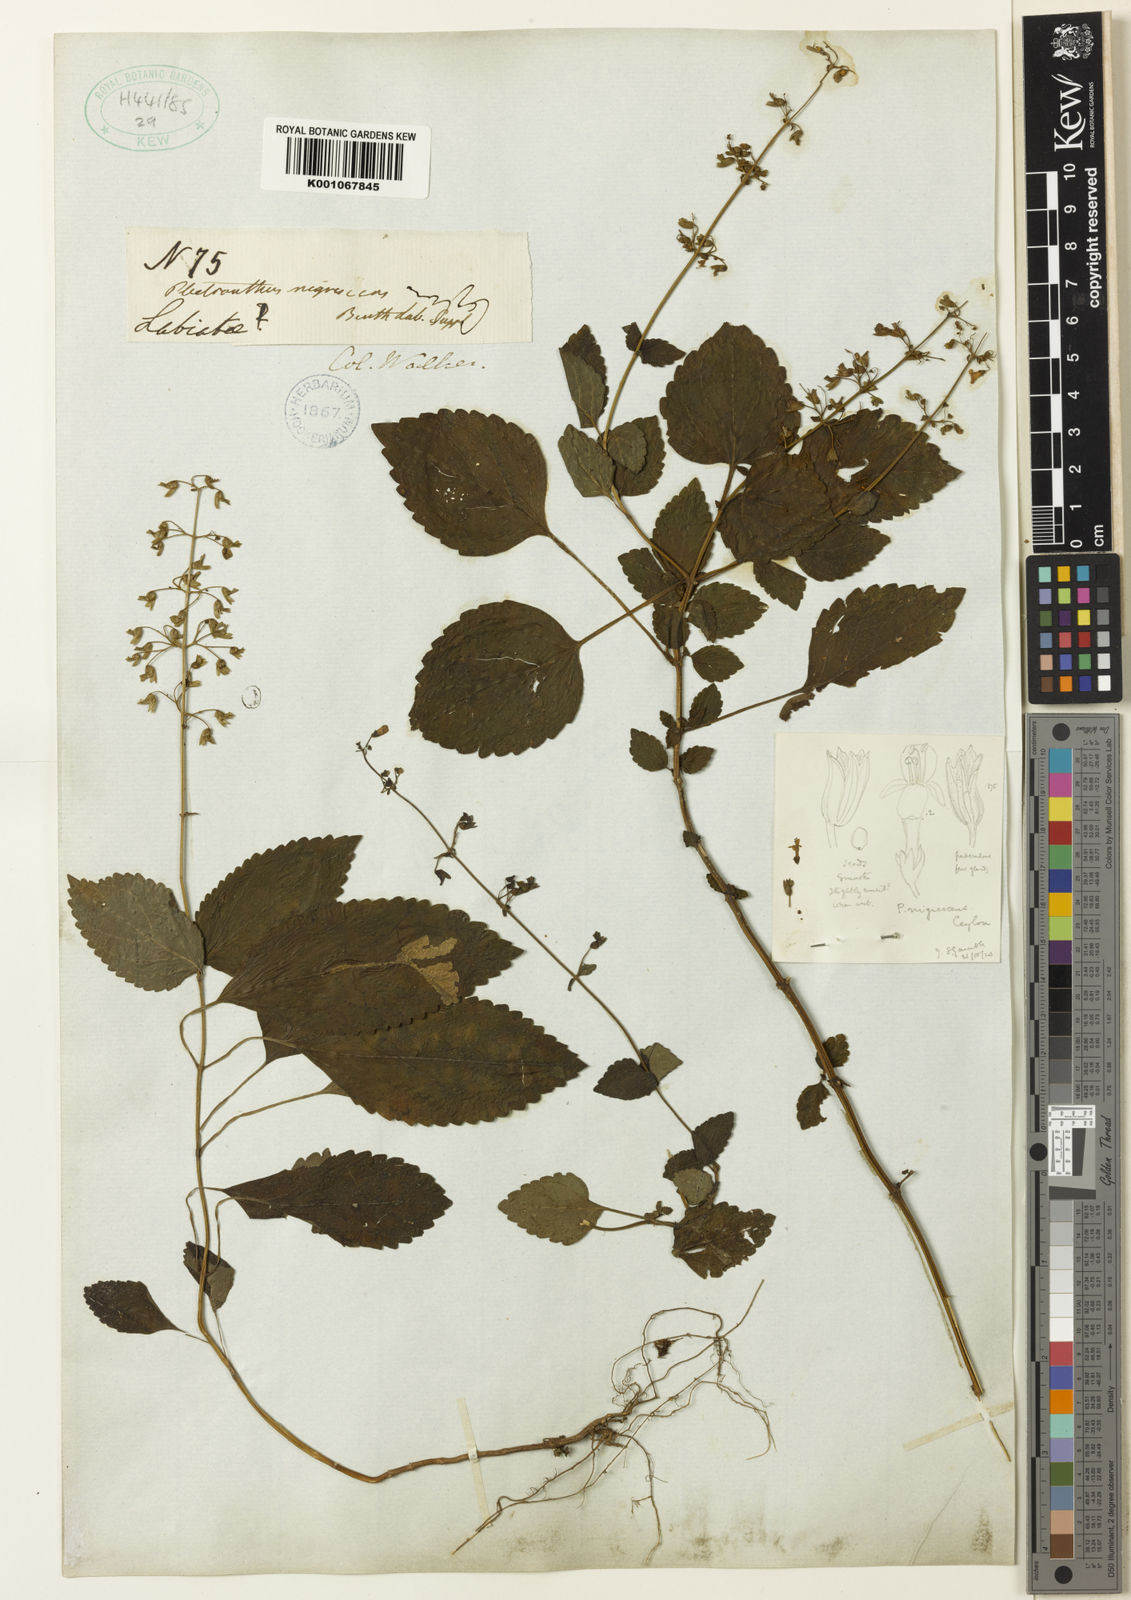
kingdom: Plantae
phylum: Tracheophyta
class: Magnoliopsida
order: Lamiales
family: Lamiaceae
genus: Isodon
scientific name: Isodon nigrescens
